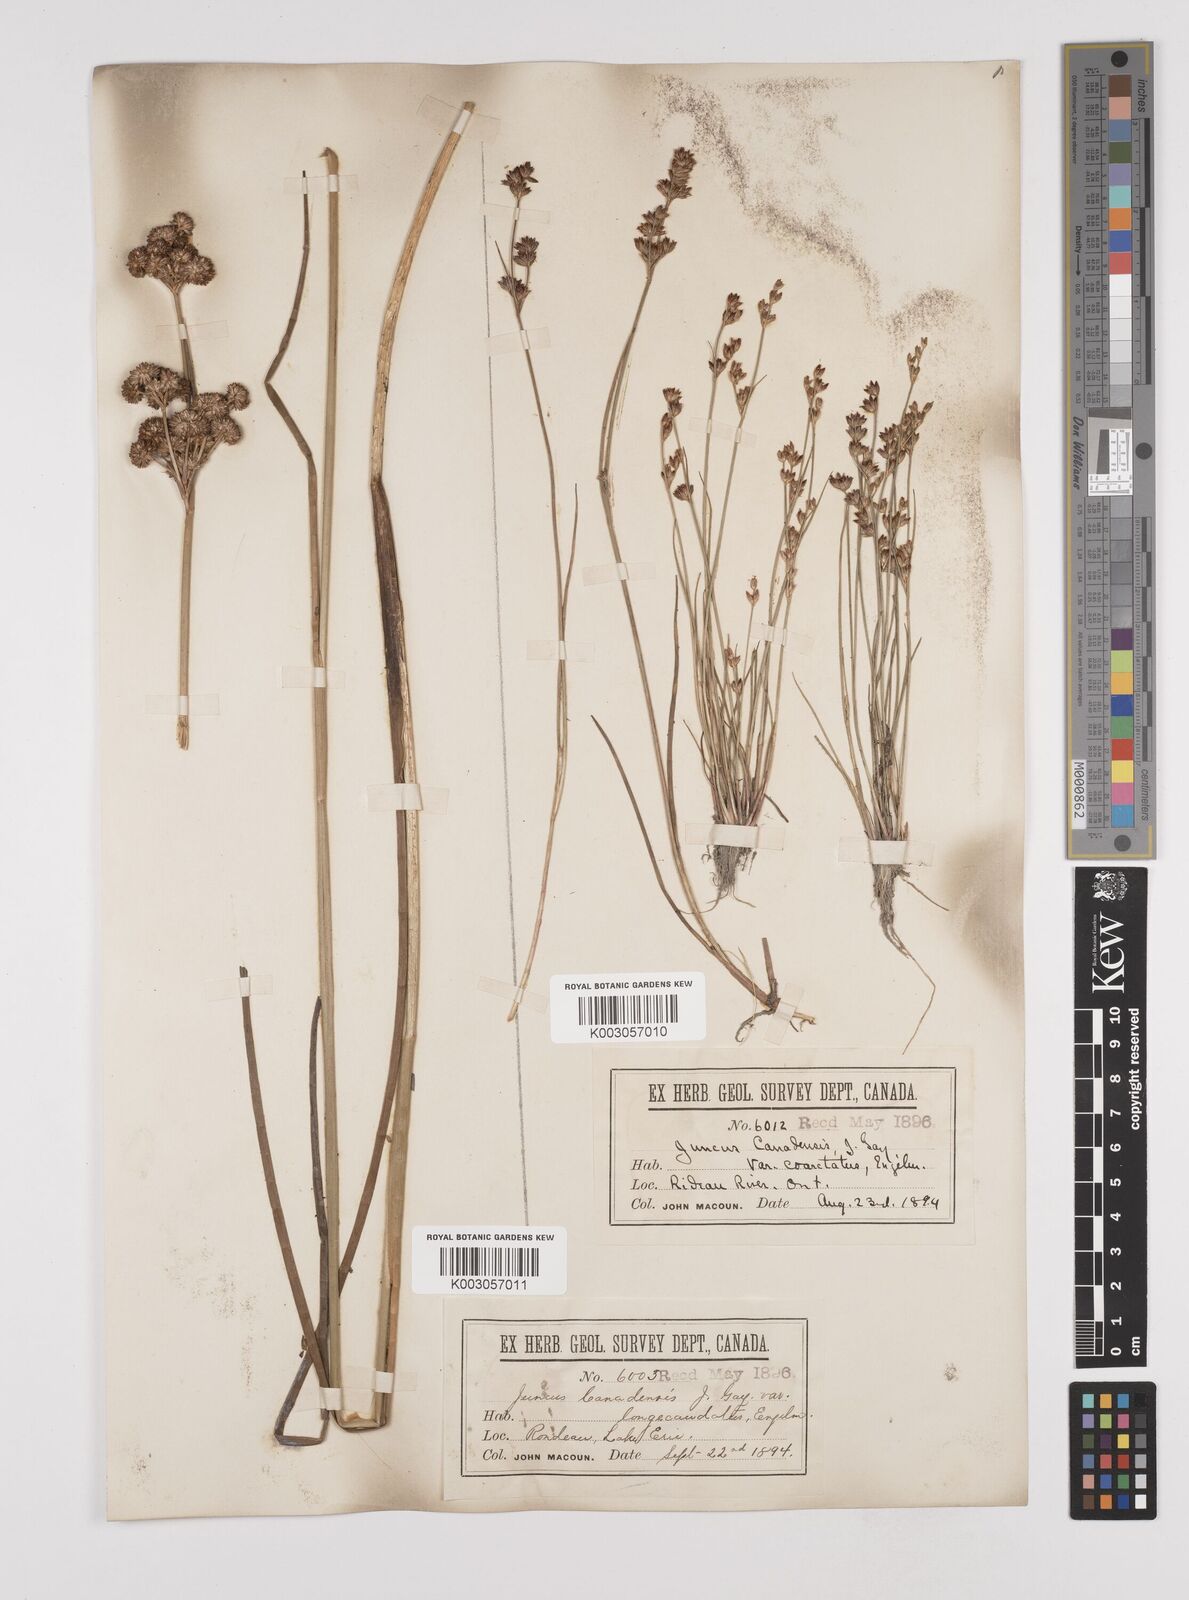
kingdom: Plantae
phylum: Tracheophyta
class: Liliopsida
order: Poales
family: Juncaceae
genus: Juncus
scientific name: Juncus trigonocarpus
